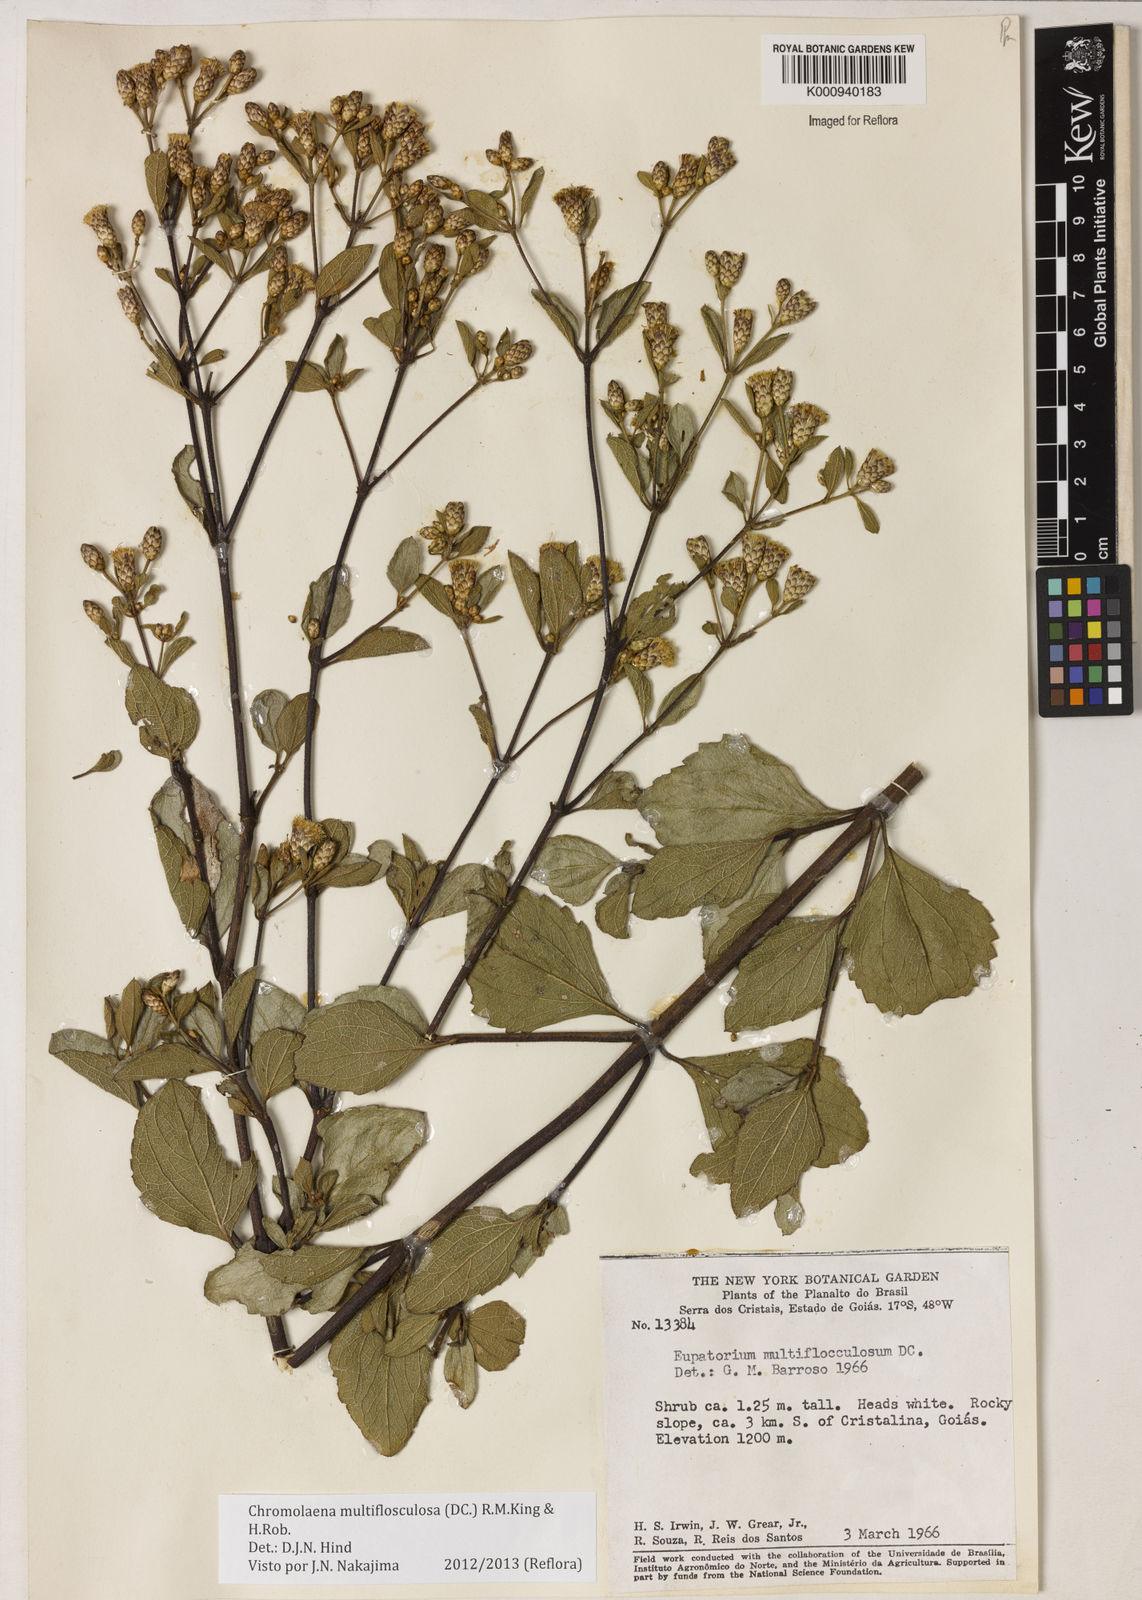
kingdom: Plantae
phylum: Tracheophyta
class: Magnoliopsida
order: Asterales
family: Asteraceae
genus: Chromolaena
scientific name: Chromolaena multiflosculosa
